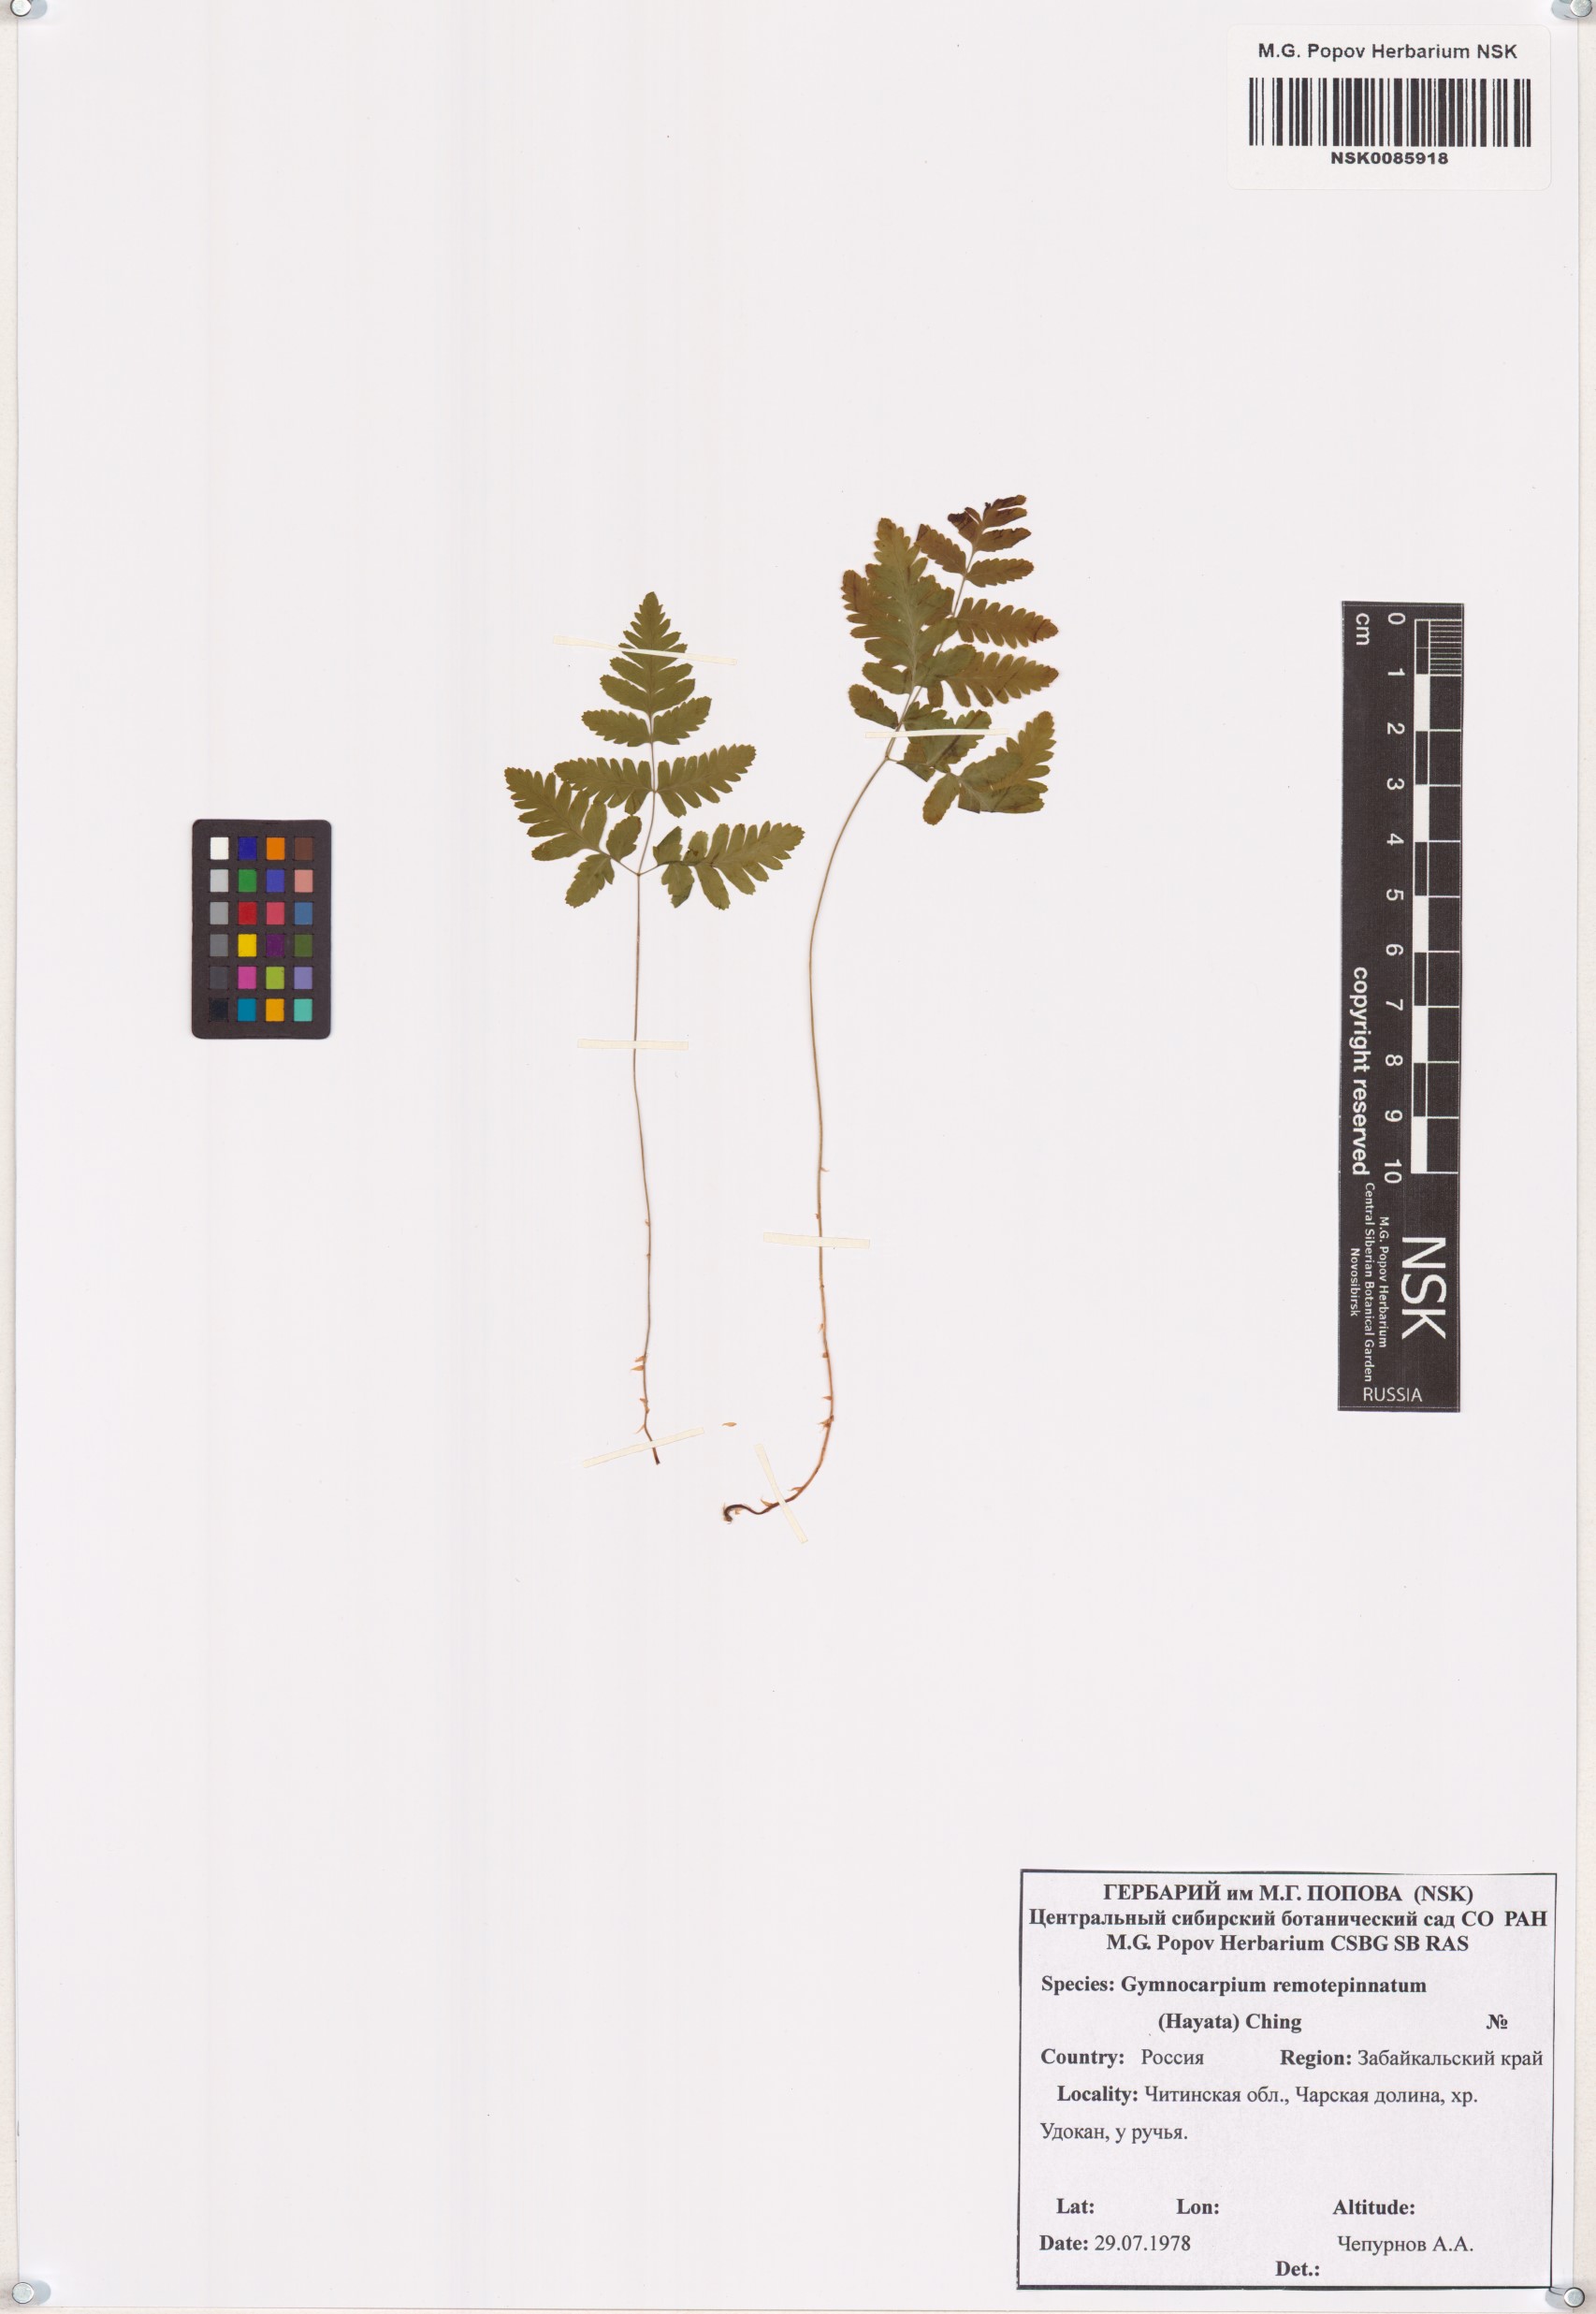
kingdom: Plantae
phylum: Tracheophyta
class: Polypodiopsida
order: Polypodiales
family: Cystopteridaceae
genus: Gymnocarpium
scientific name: Gymnocarpium remotepinnatum
